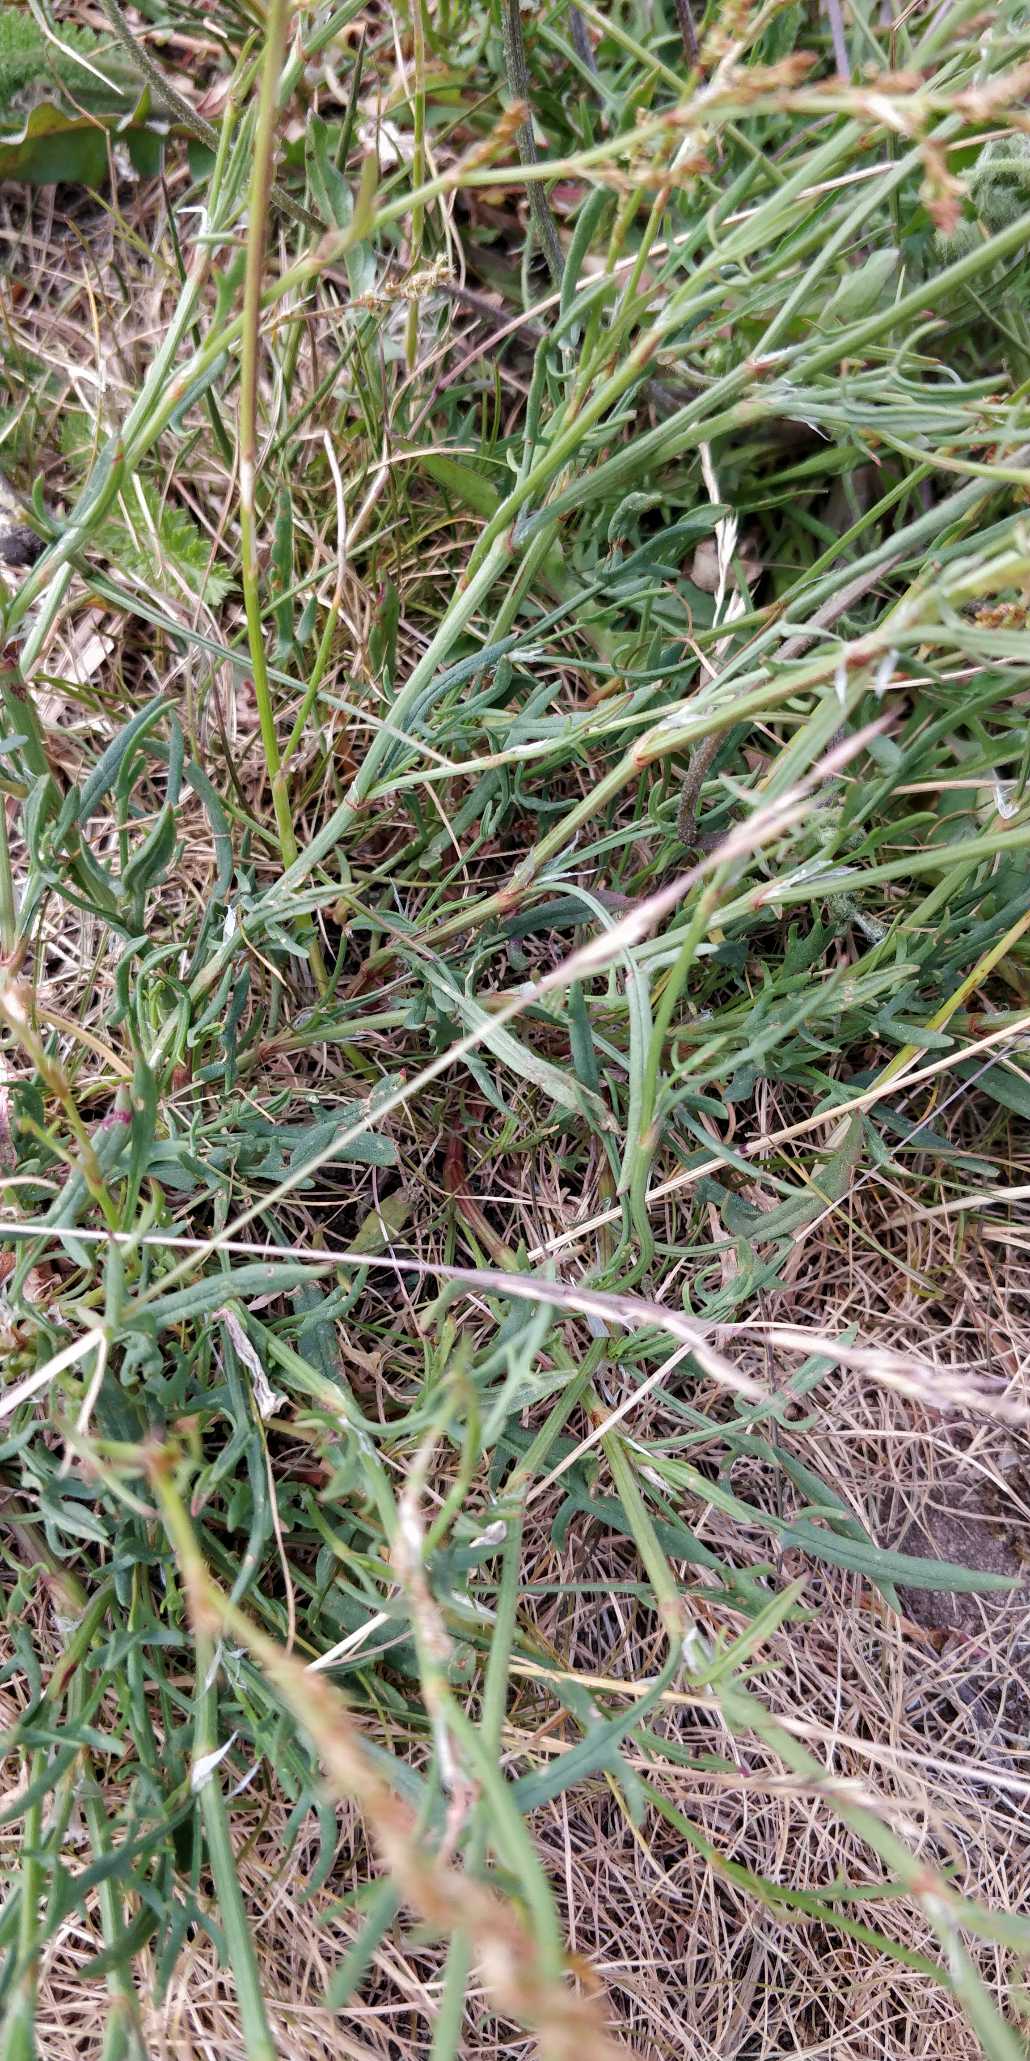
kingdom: Plantae
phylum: Tracheophyta
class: Magnoliopsida
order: Caryophyllales
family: Polygonaceae
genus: Rumex
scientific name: Rumex acetosella
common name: Rødknæ
